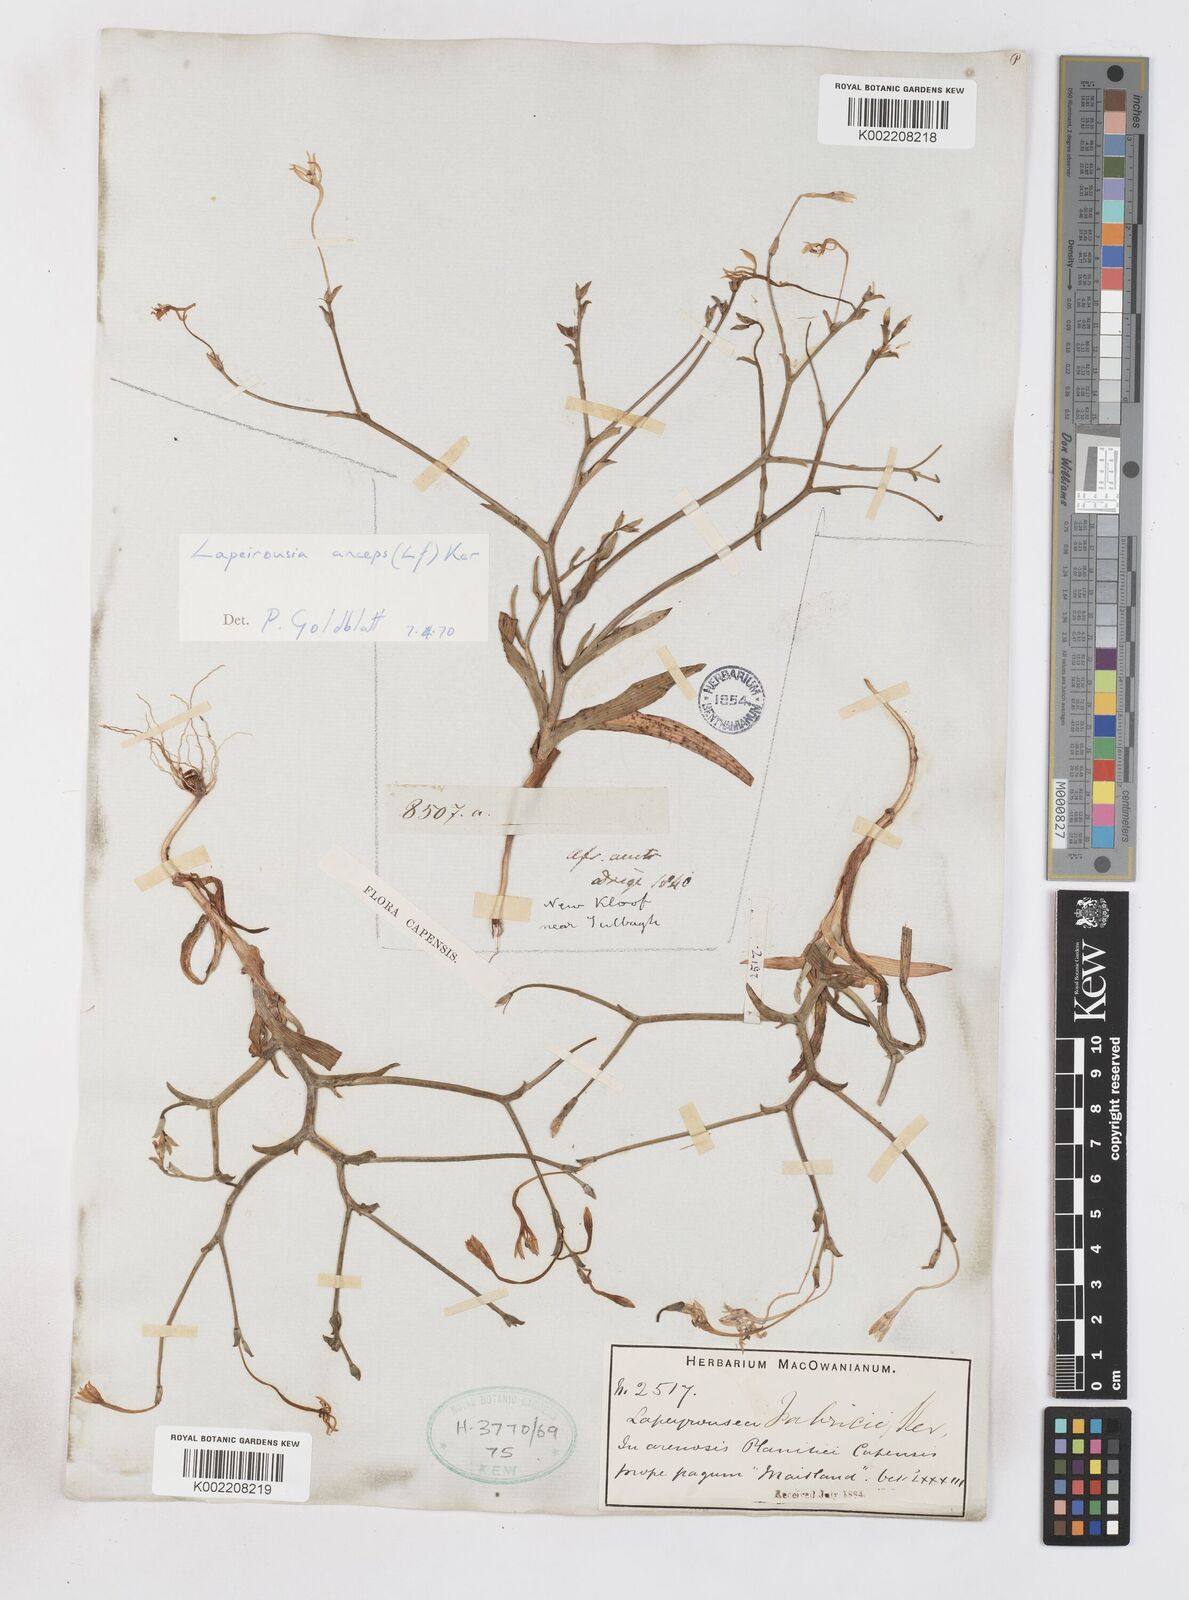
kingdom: Plantae
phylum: Tracheophyta
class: Liliopsida
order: Asparagales
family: Iridaceae
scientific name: Iridaceae
